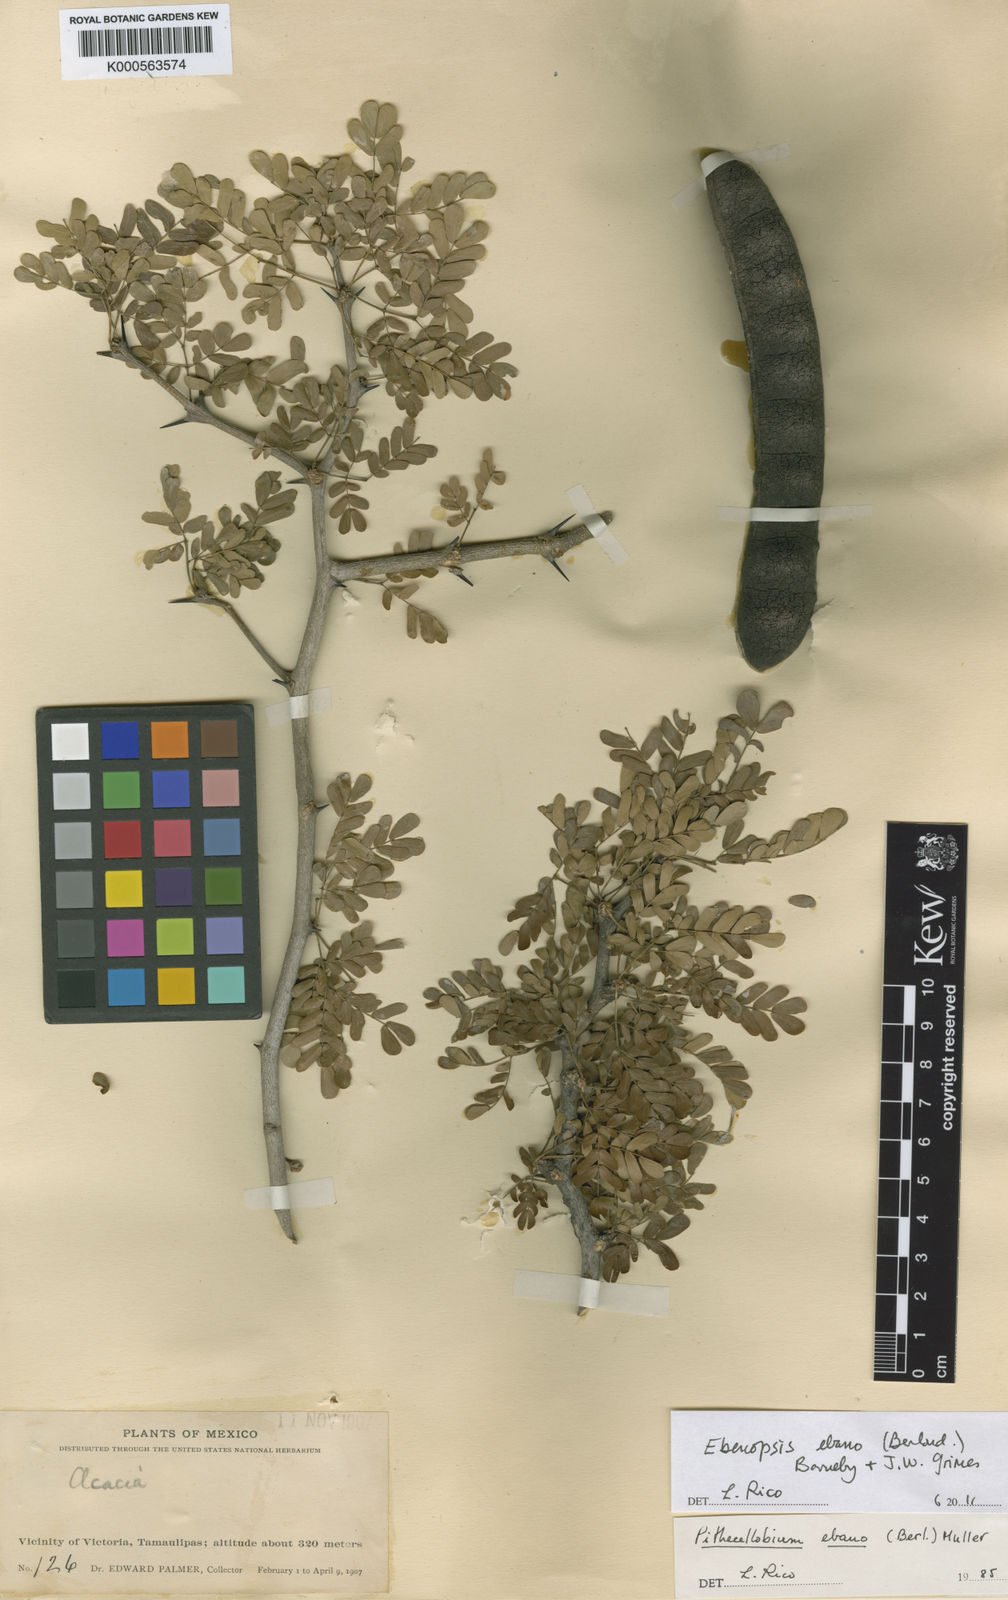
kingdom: Plantae
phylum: Tracheophyta
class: Magnoliopsida
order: Fabales
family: Fabaceae
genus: Ebenopsis
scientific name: Ebenopsis ebano
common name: Ebony blackbead
